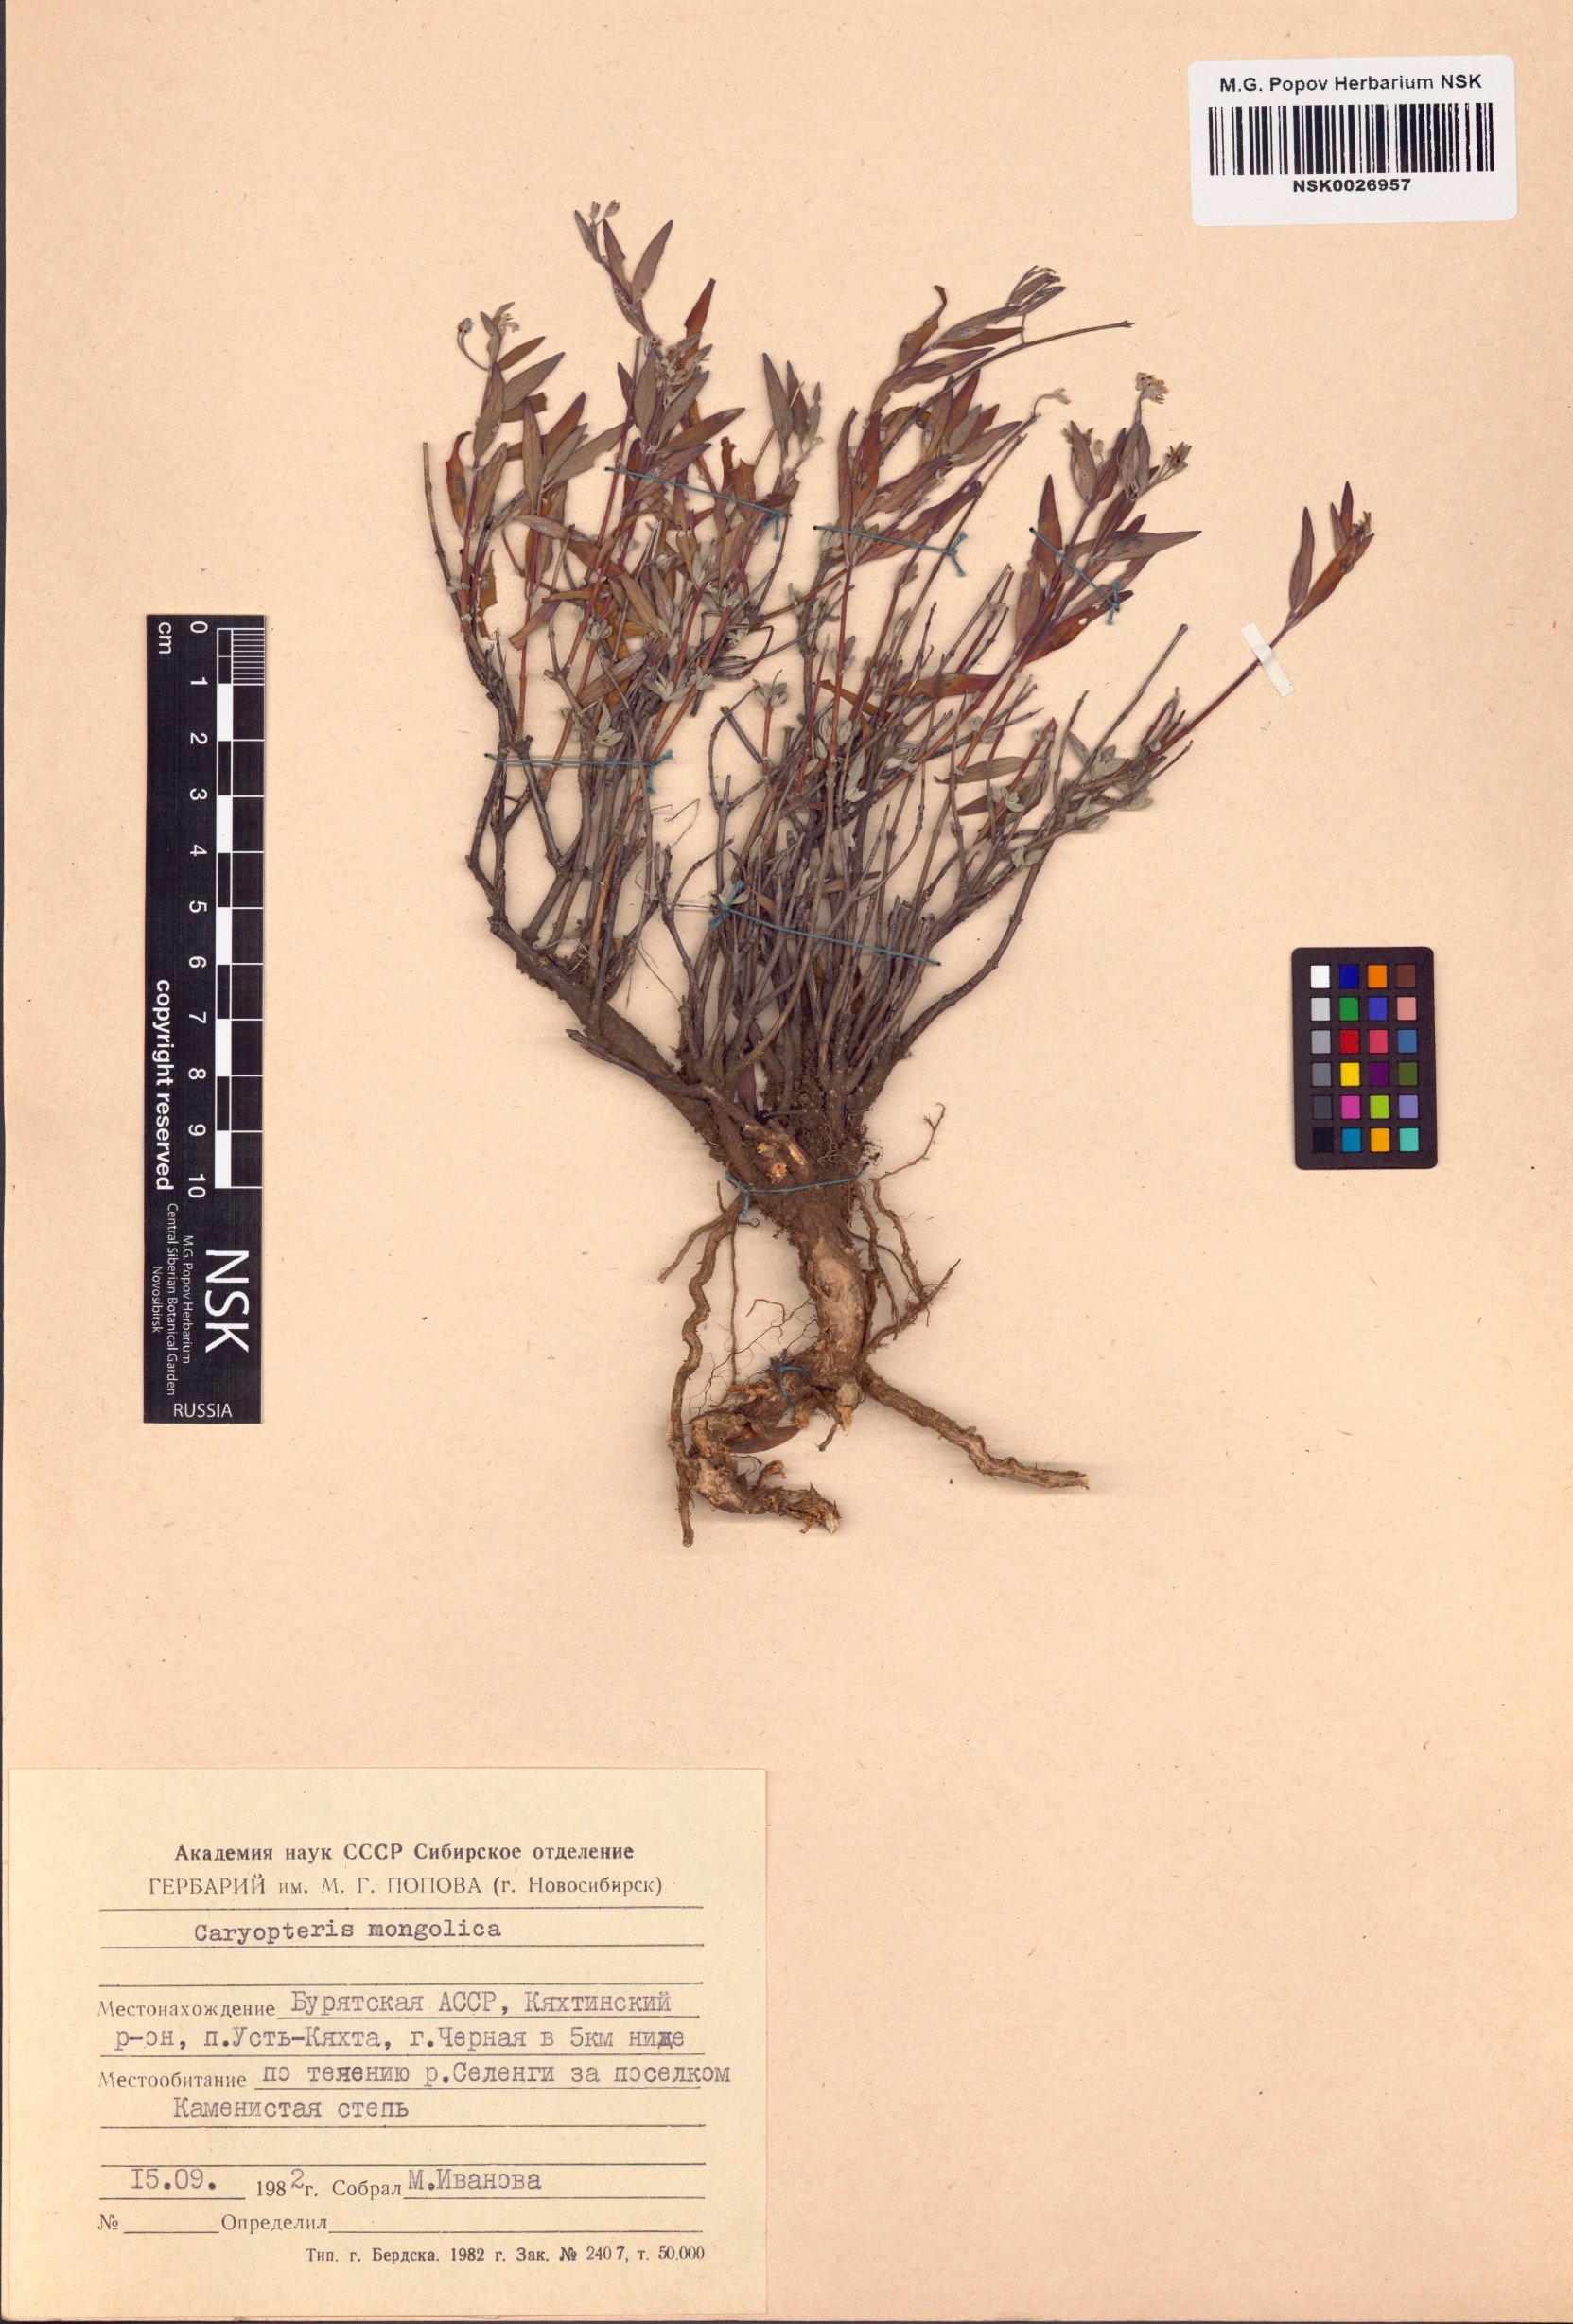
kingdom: Plantae
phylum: Tracheophyta
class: Magnoliopsida
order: Lamiales
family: Lamiaceae
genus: Caryopteris
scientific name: Caryopteris mongholica
